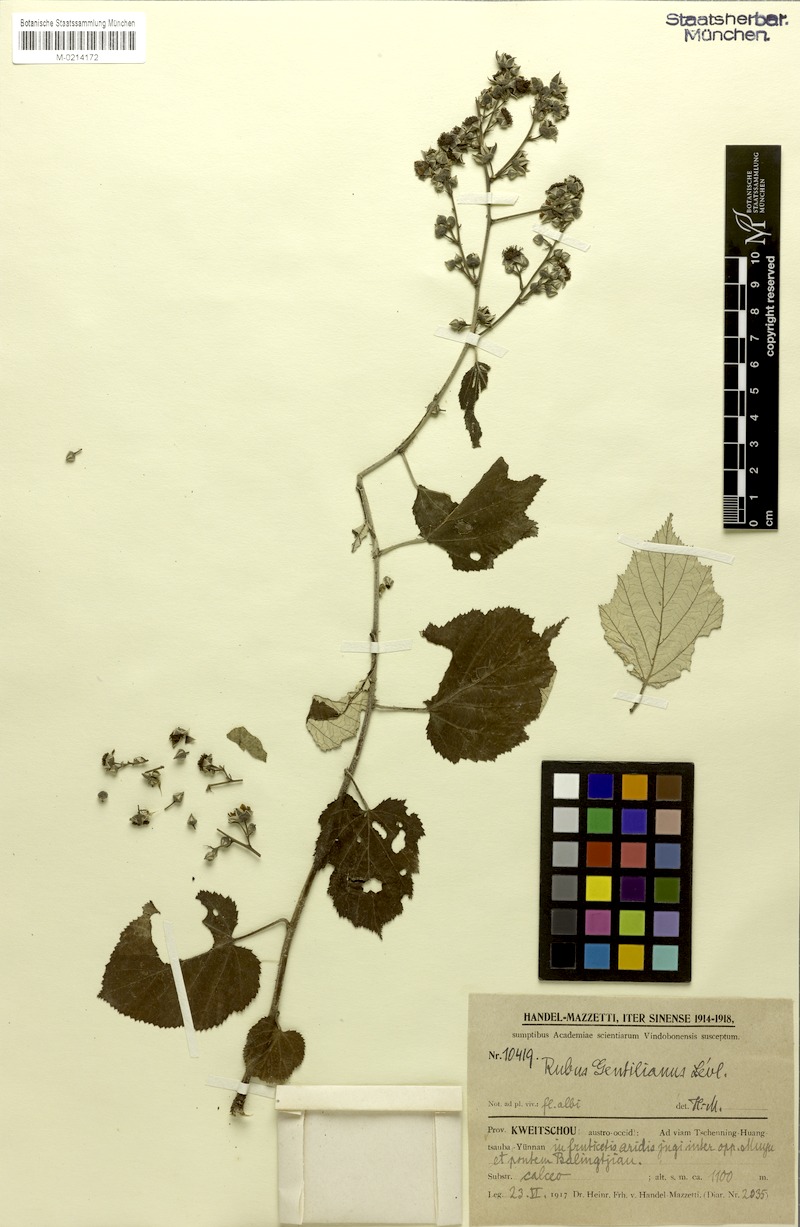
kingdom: Plantae
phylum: Tracheophyta
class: Magnoliopsida
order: Rosales
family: Rosaceae
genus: Rubus
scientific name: Rubus xanthoneurus
